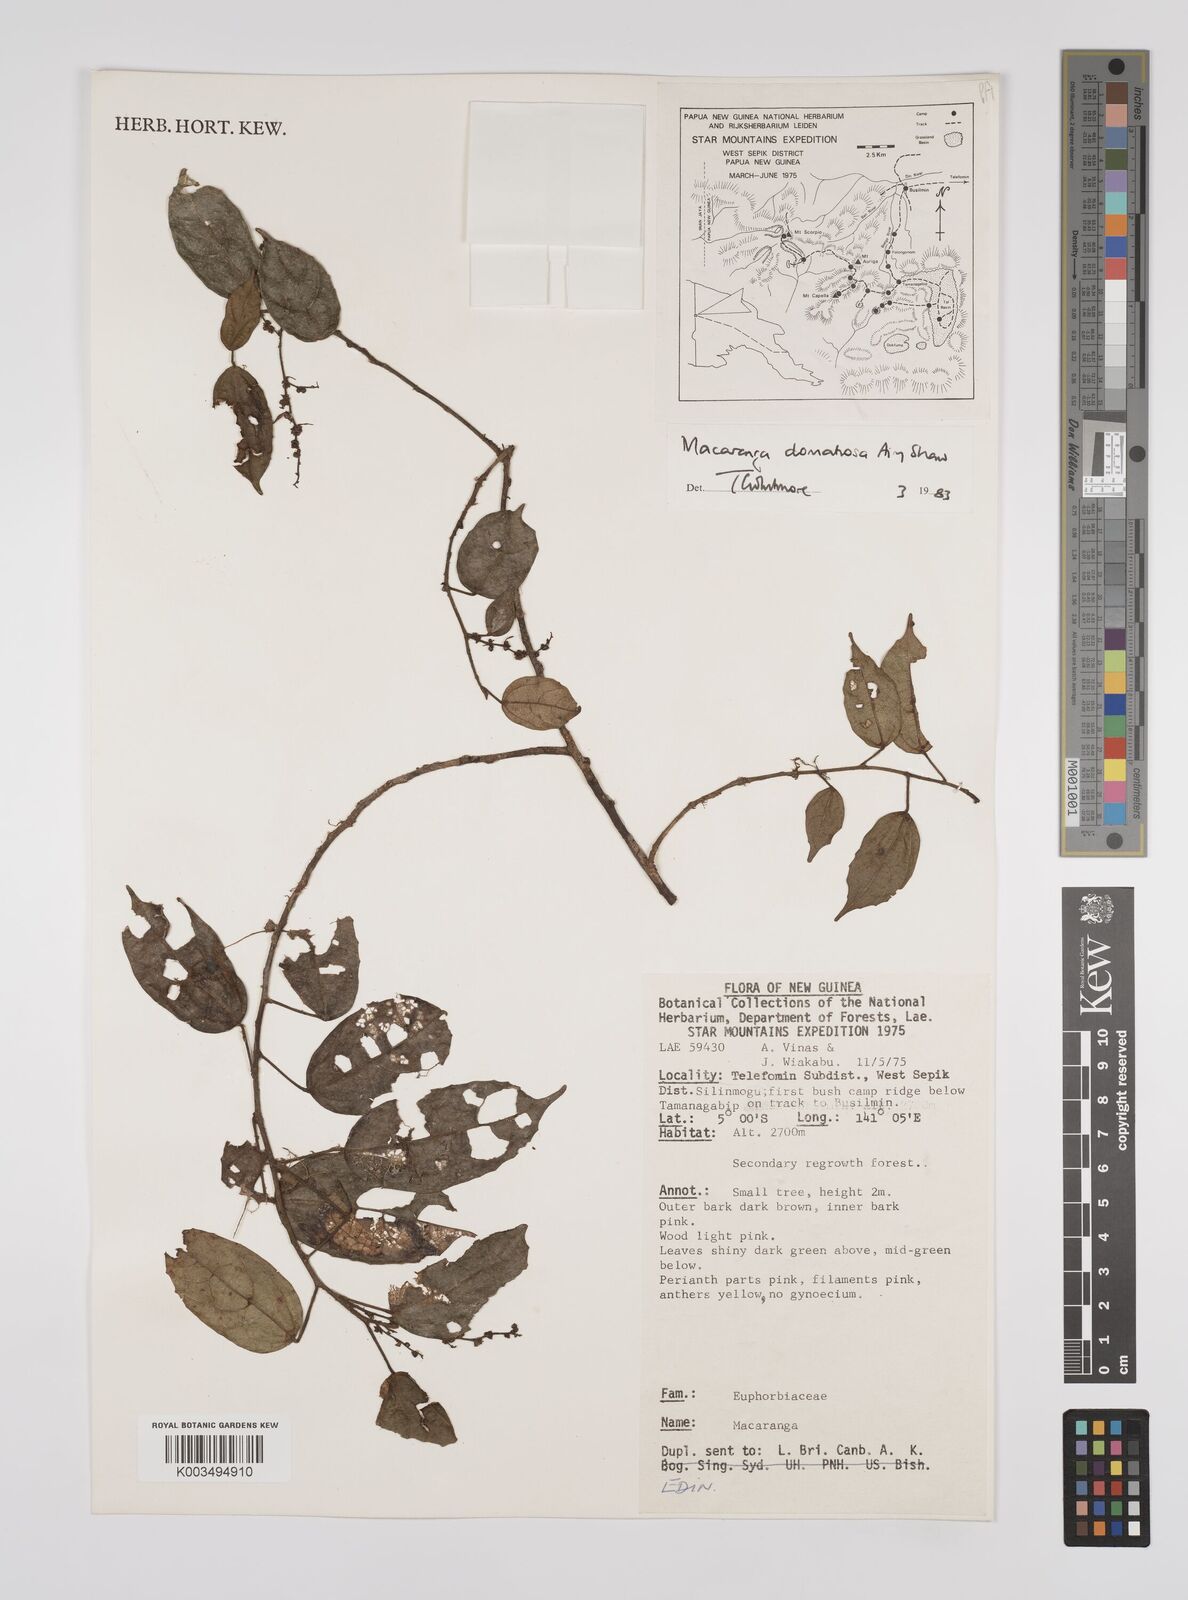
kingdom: Plantae
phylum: Tracheophyta
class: Magnoliopsida
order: Malpighiales
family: Euphorbiaceae
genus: Macaranga
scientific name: Macaranga domatiosa
